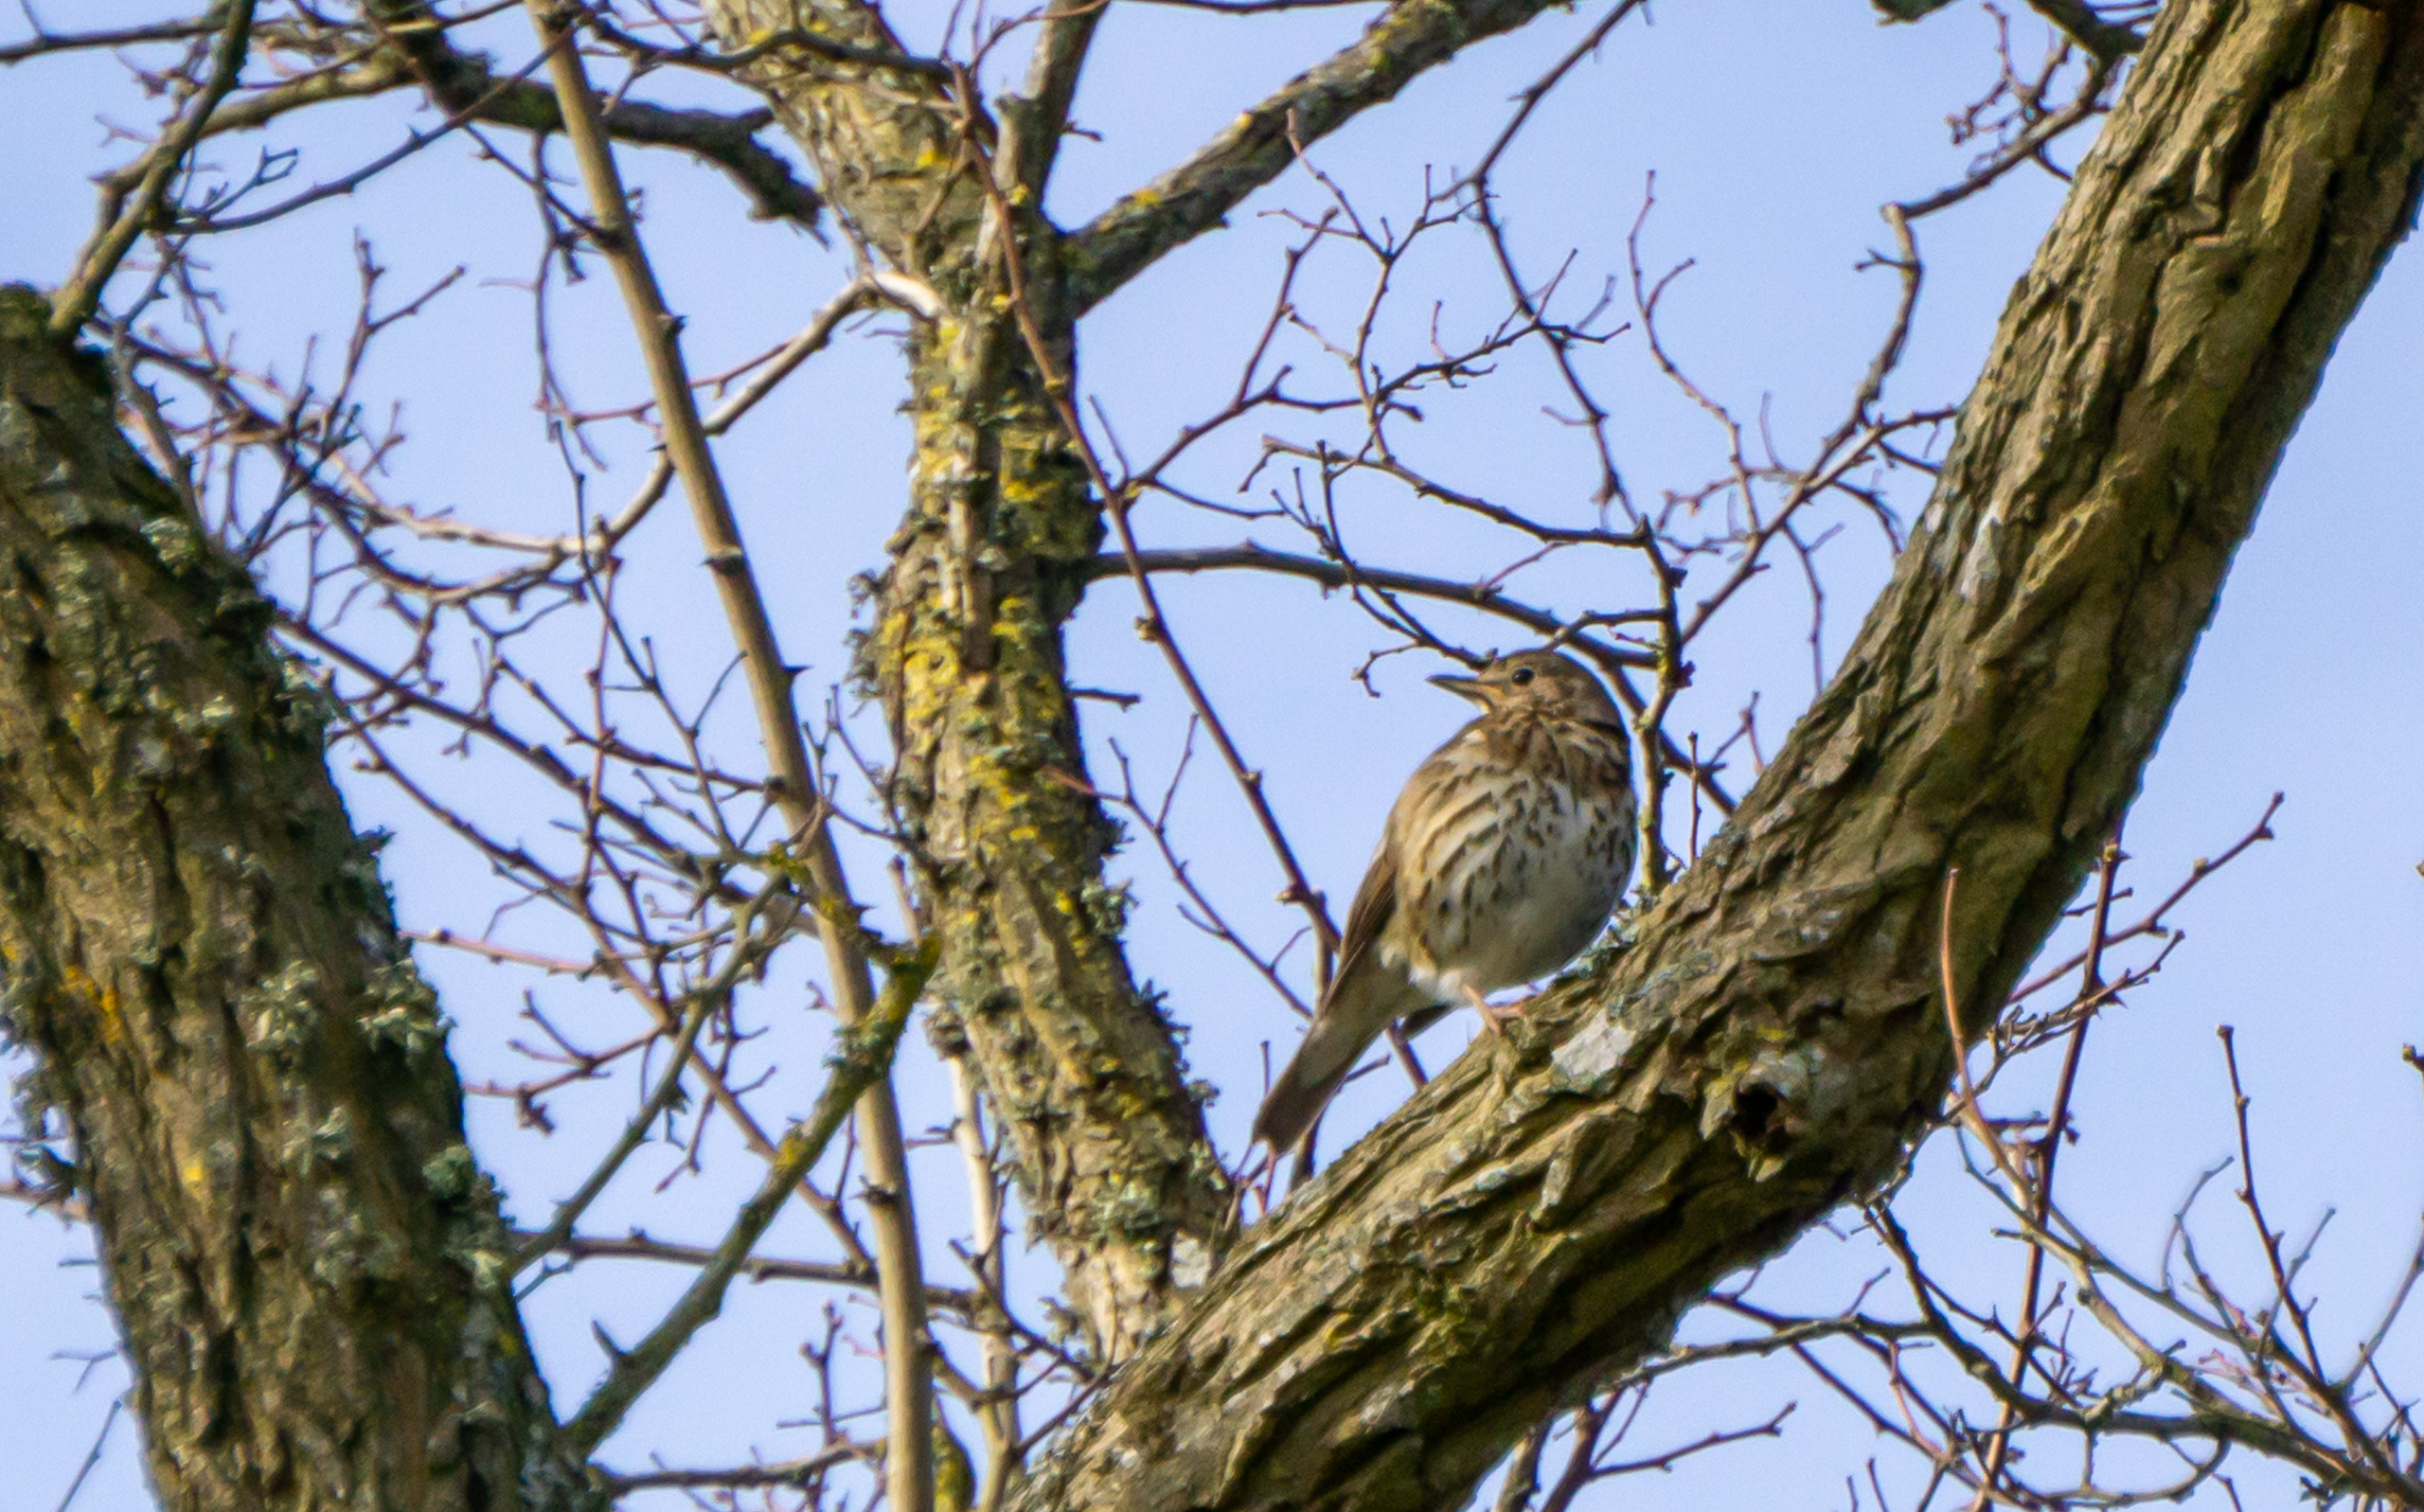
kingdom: Animalia
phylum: Chordata
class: Aves
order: Passeriformes
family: Turdidae
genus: Turdus
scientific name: Turdus philomelos
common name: Sangdrossel
